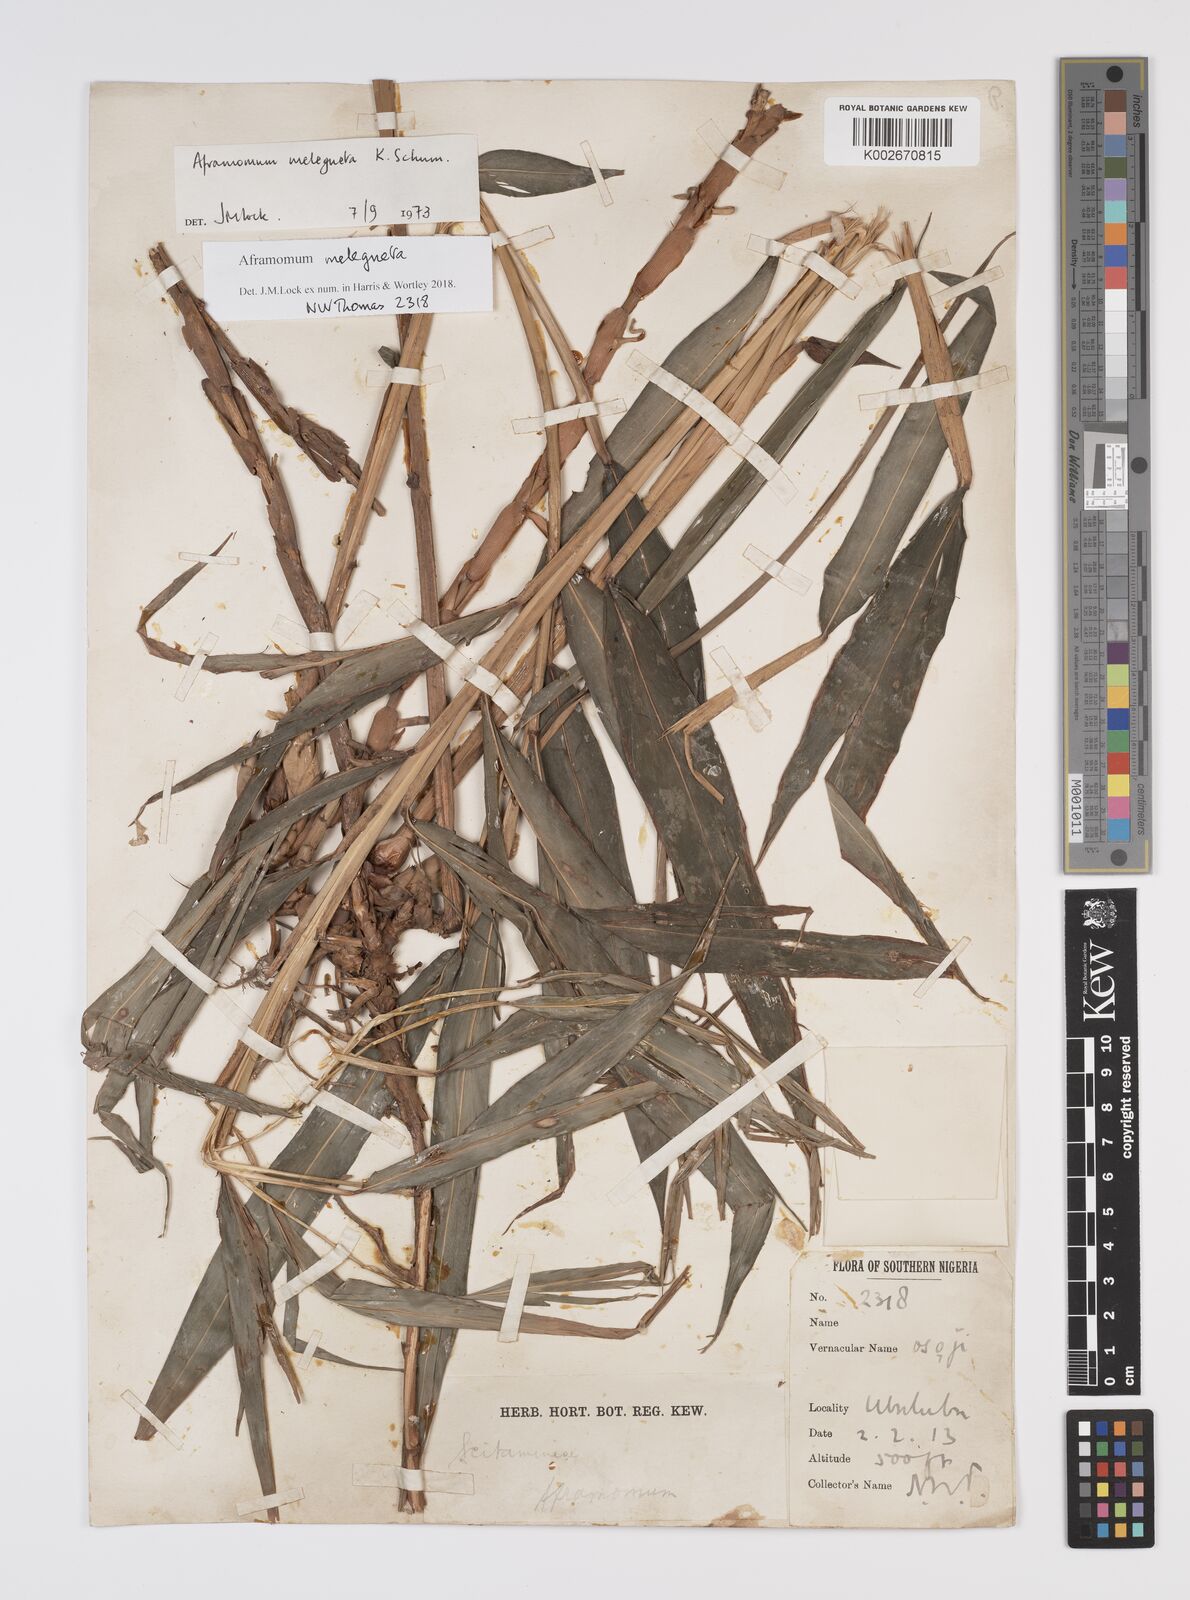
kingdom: Plantae
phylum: Tracheophyta
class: Liliopsida
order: Zingiberales
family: Zingiberaceae
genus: Aframomum
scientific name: Aframomum melegueta
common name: Grains of paradise
